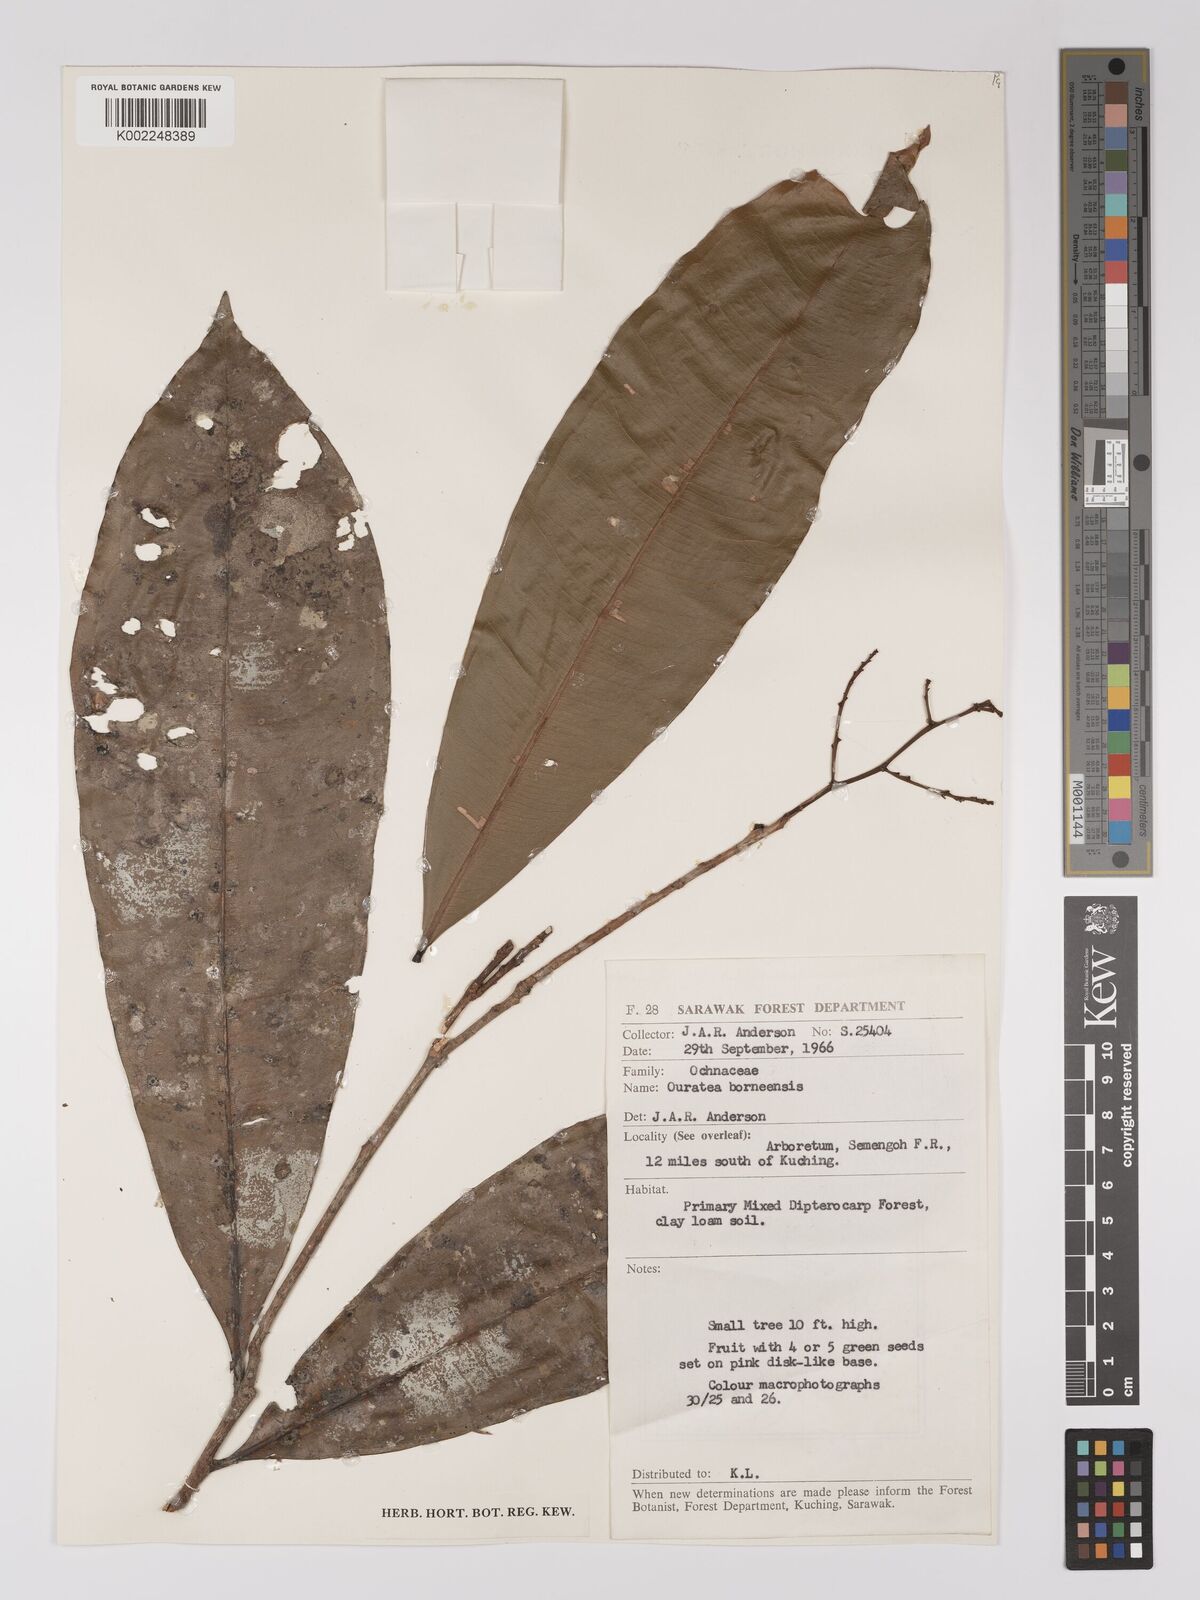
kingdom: Plantae
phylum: Tracheophyta
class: Magnoliopsida
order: Malpighiales
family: Ochnaceae
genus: Gomphia
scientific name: Gomphia serrata
